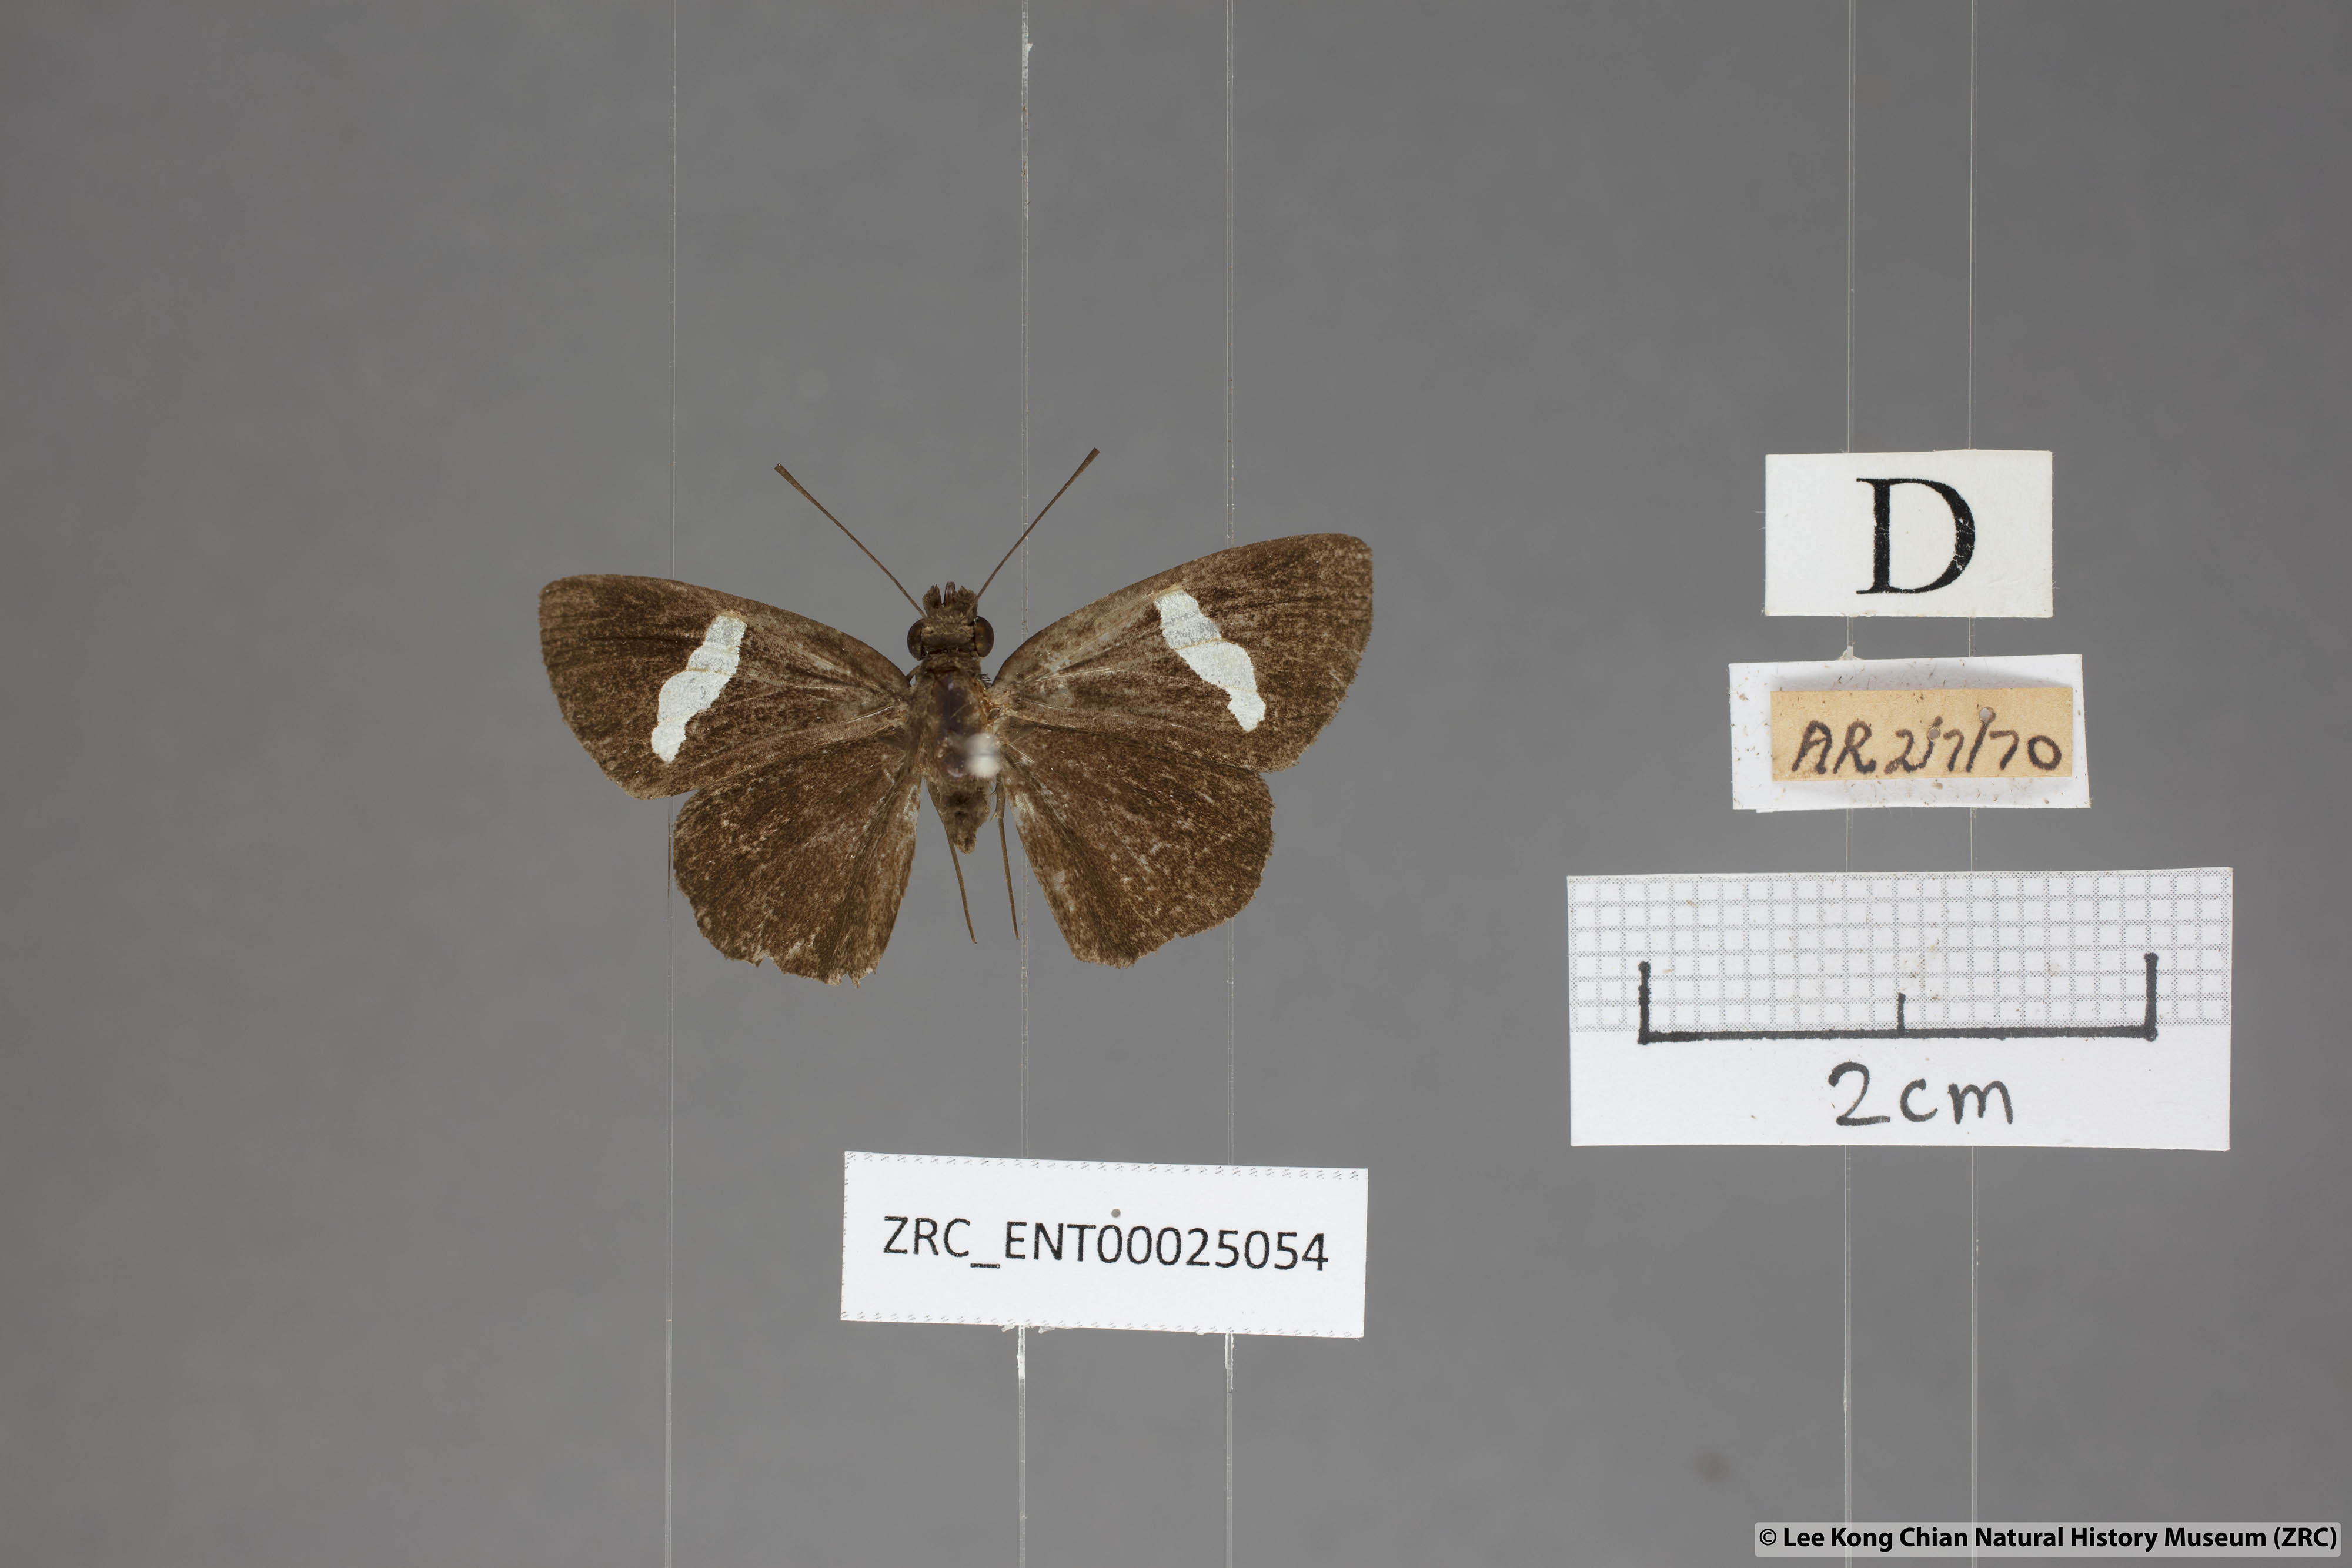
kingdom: Animalia
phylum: Arthropoda
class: Insecta
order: Lepidoptera
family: Hesperiidae
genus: Notocrypta
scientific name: Notocrypta pria
